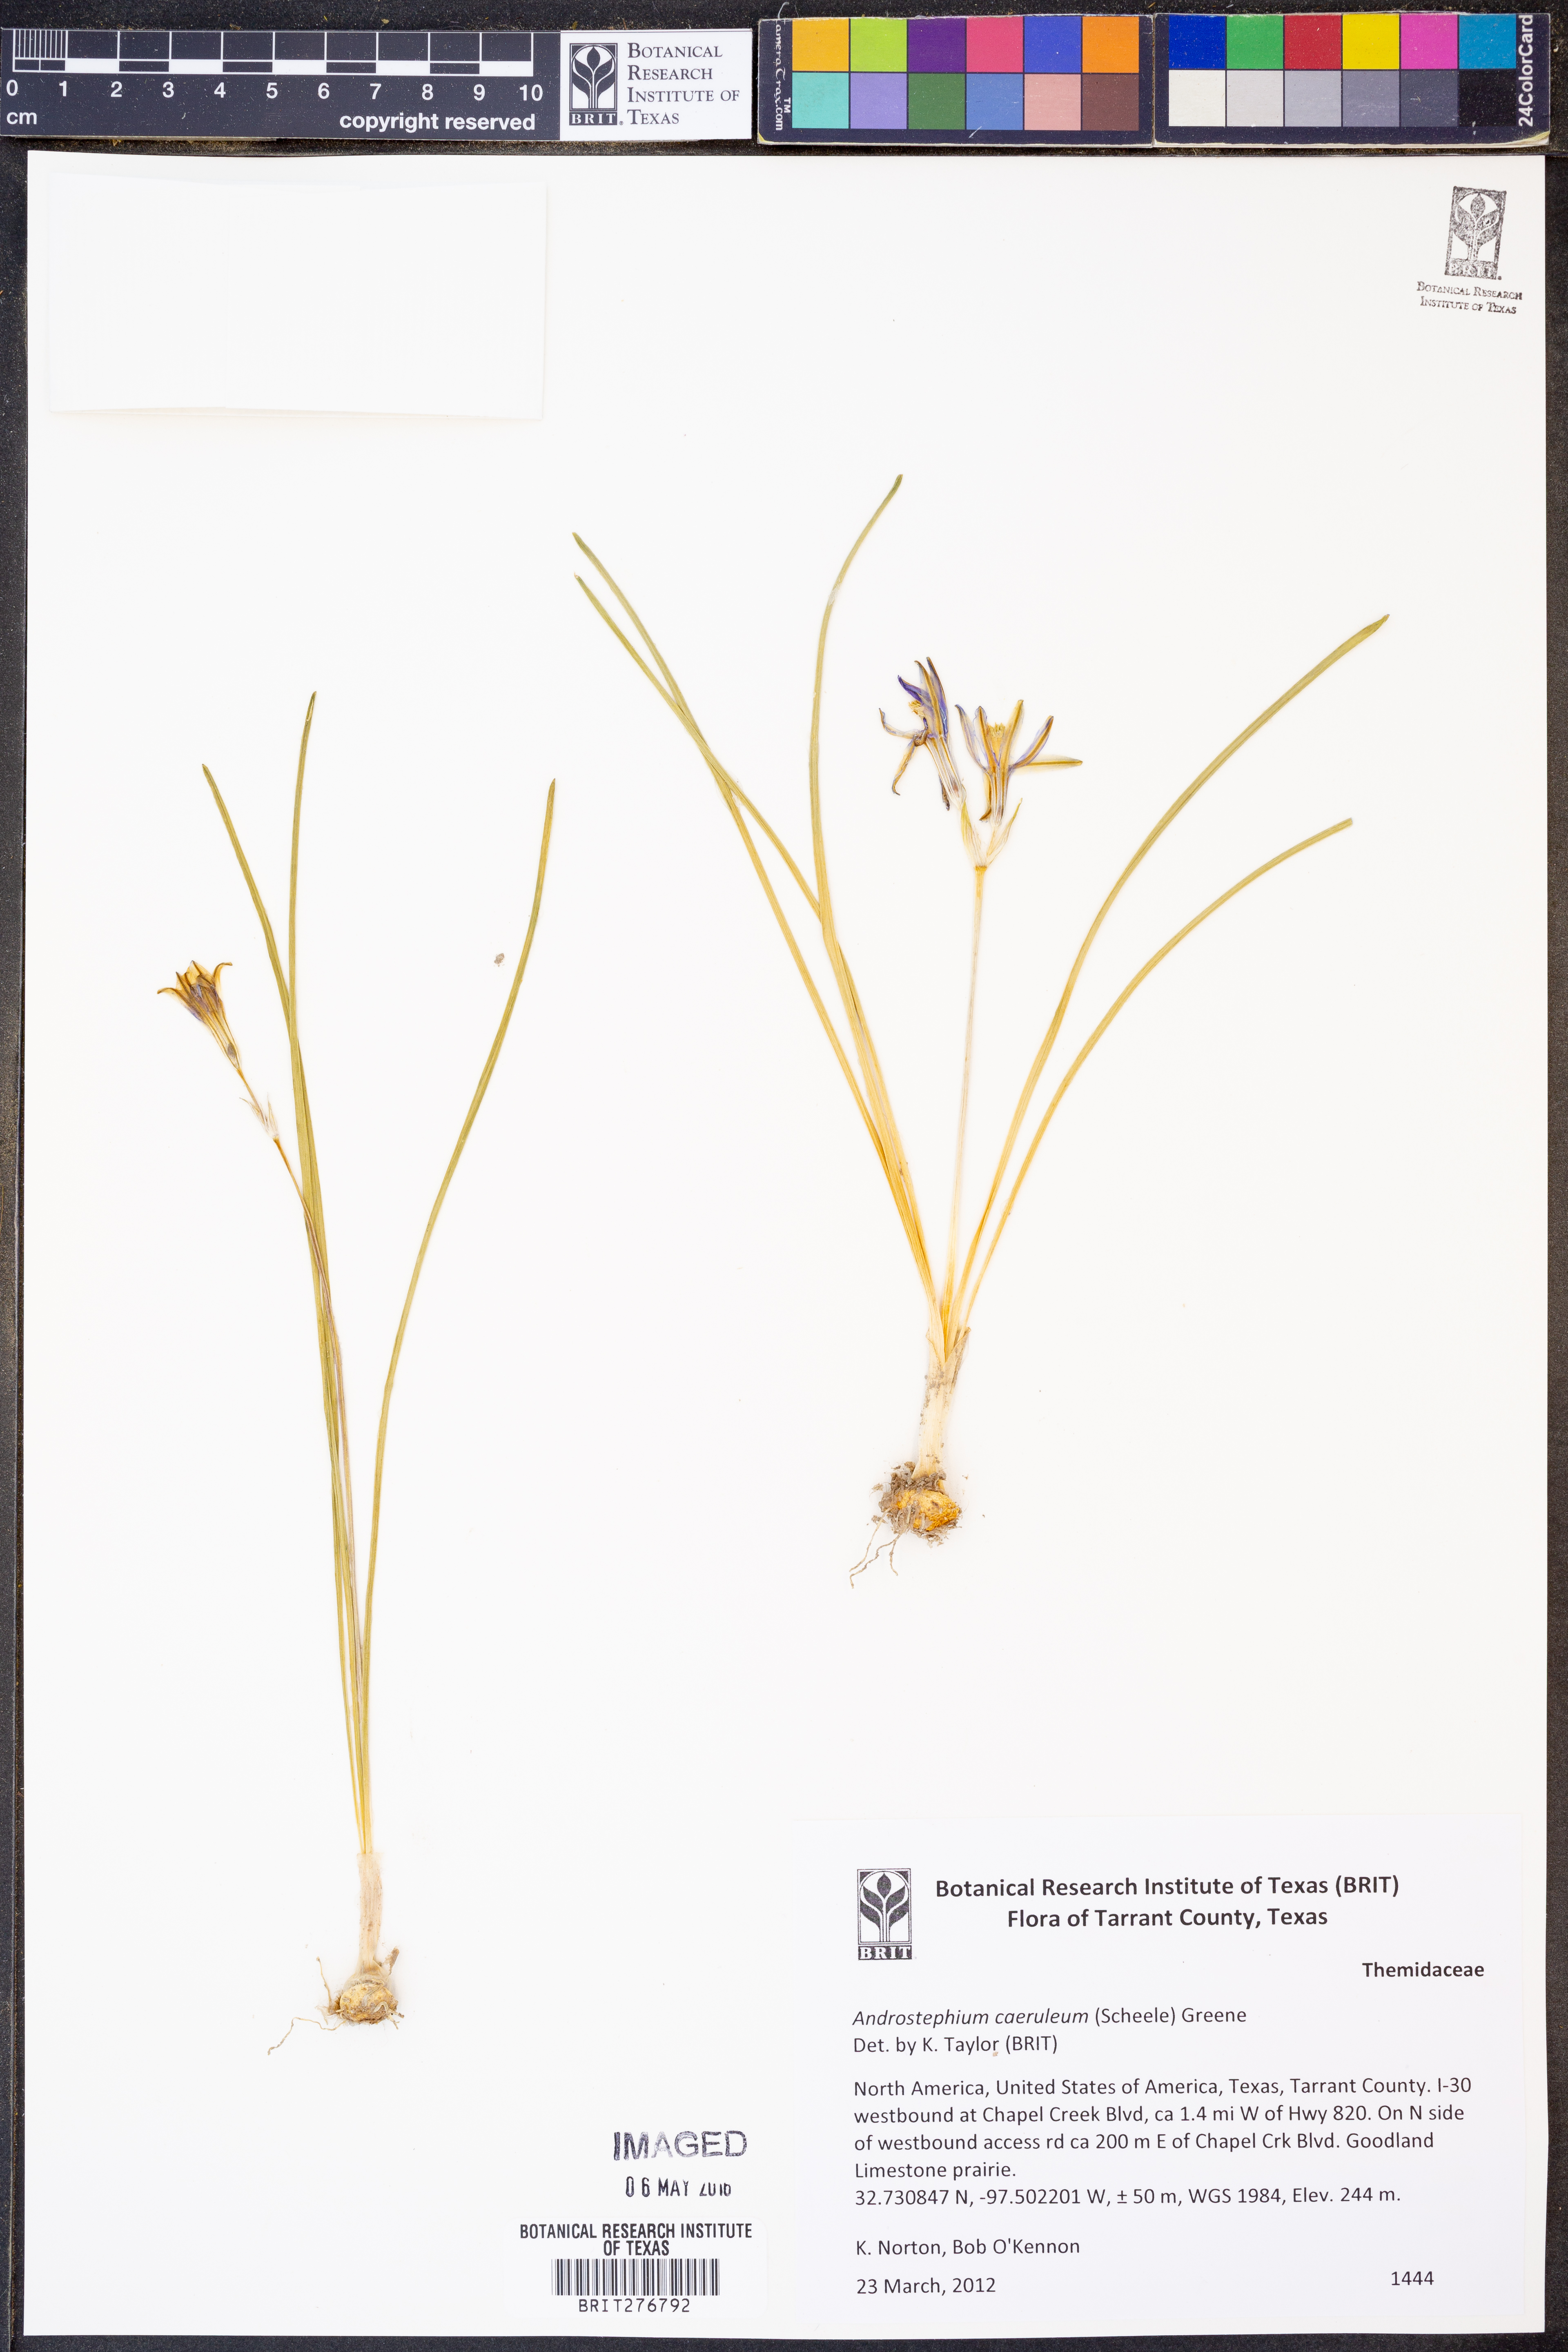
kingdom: Plantae
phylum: Tracheophyta
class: Liliopsida
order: Asparagales
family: Asparagaceae
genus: Androstephium
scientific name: Androstephium caeruleum
